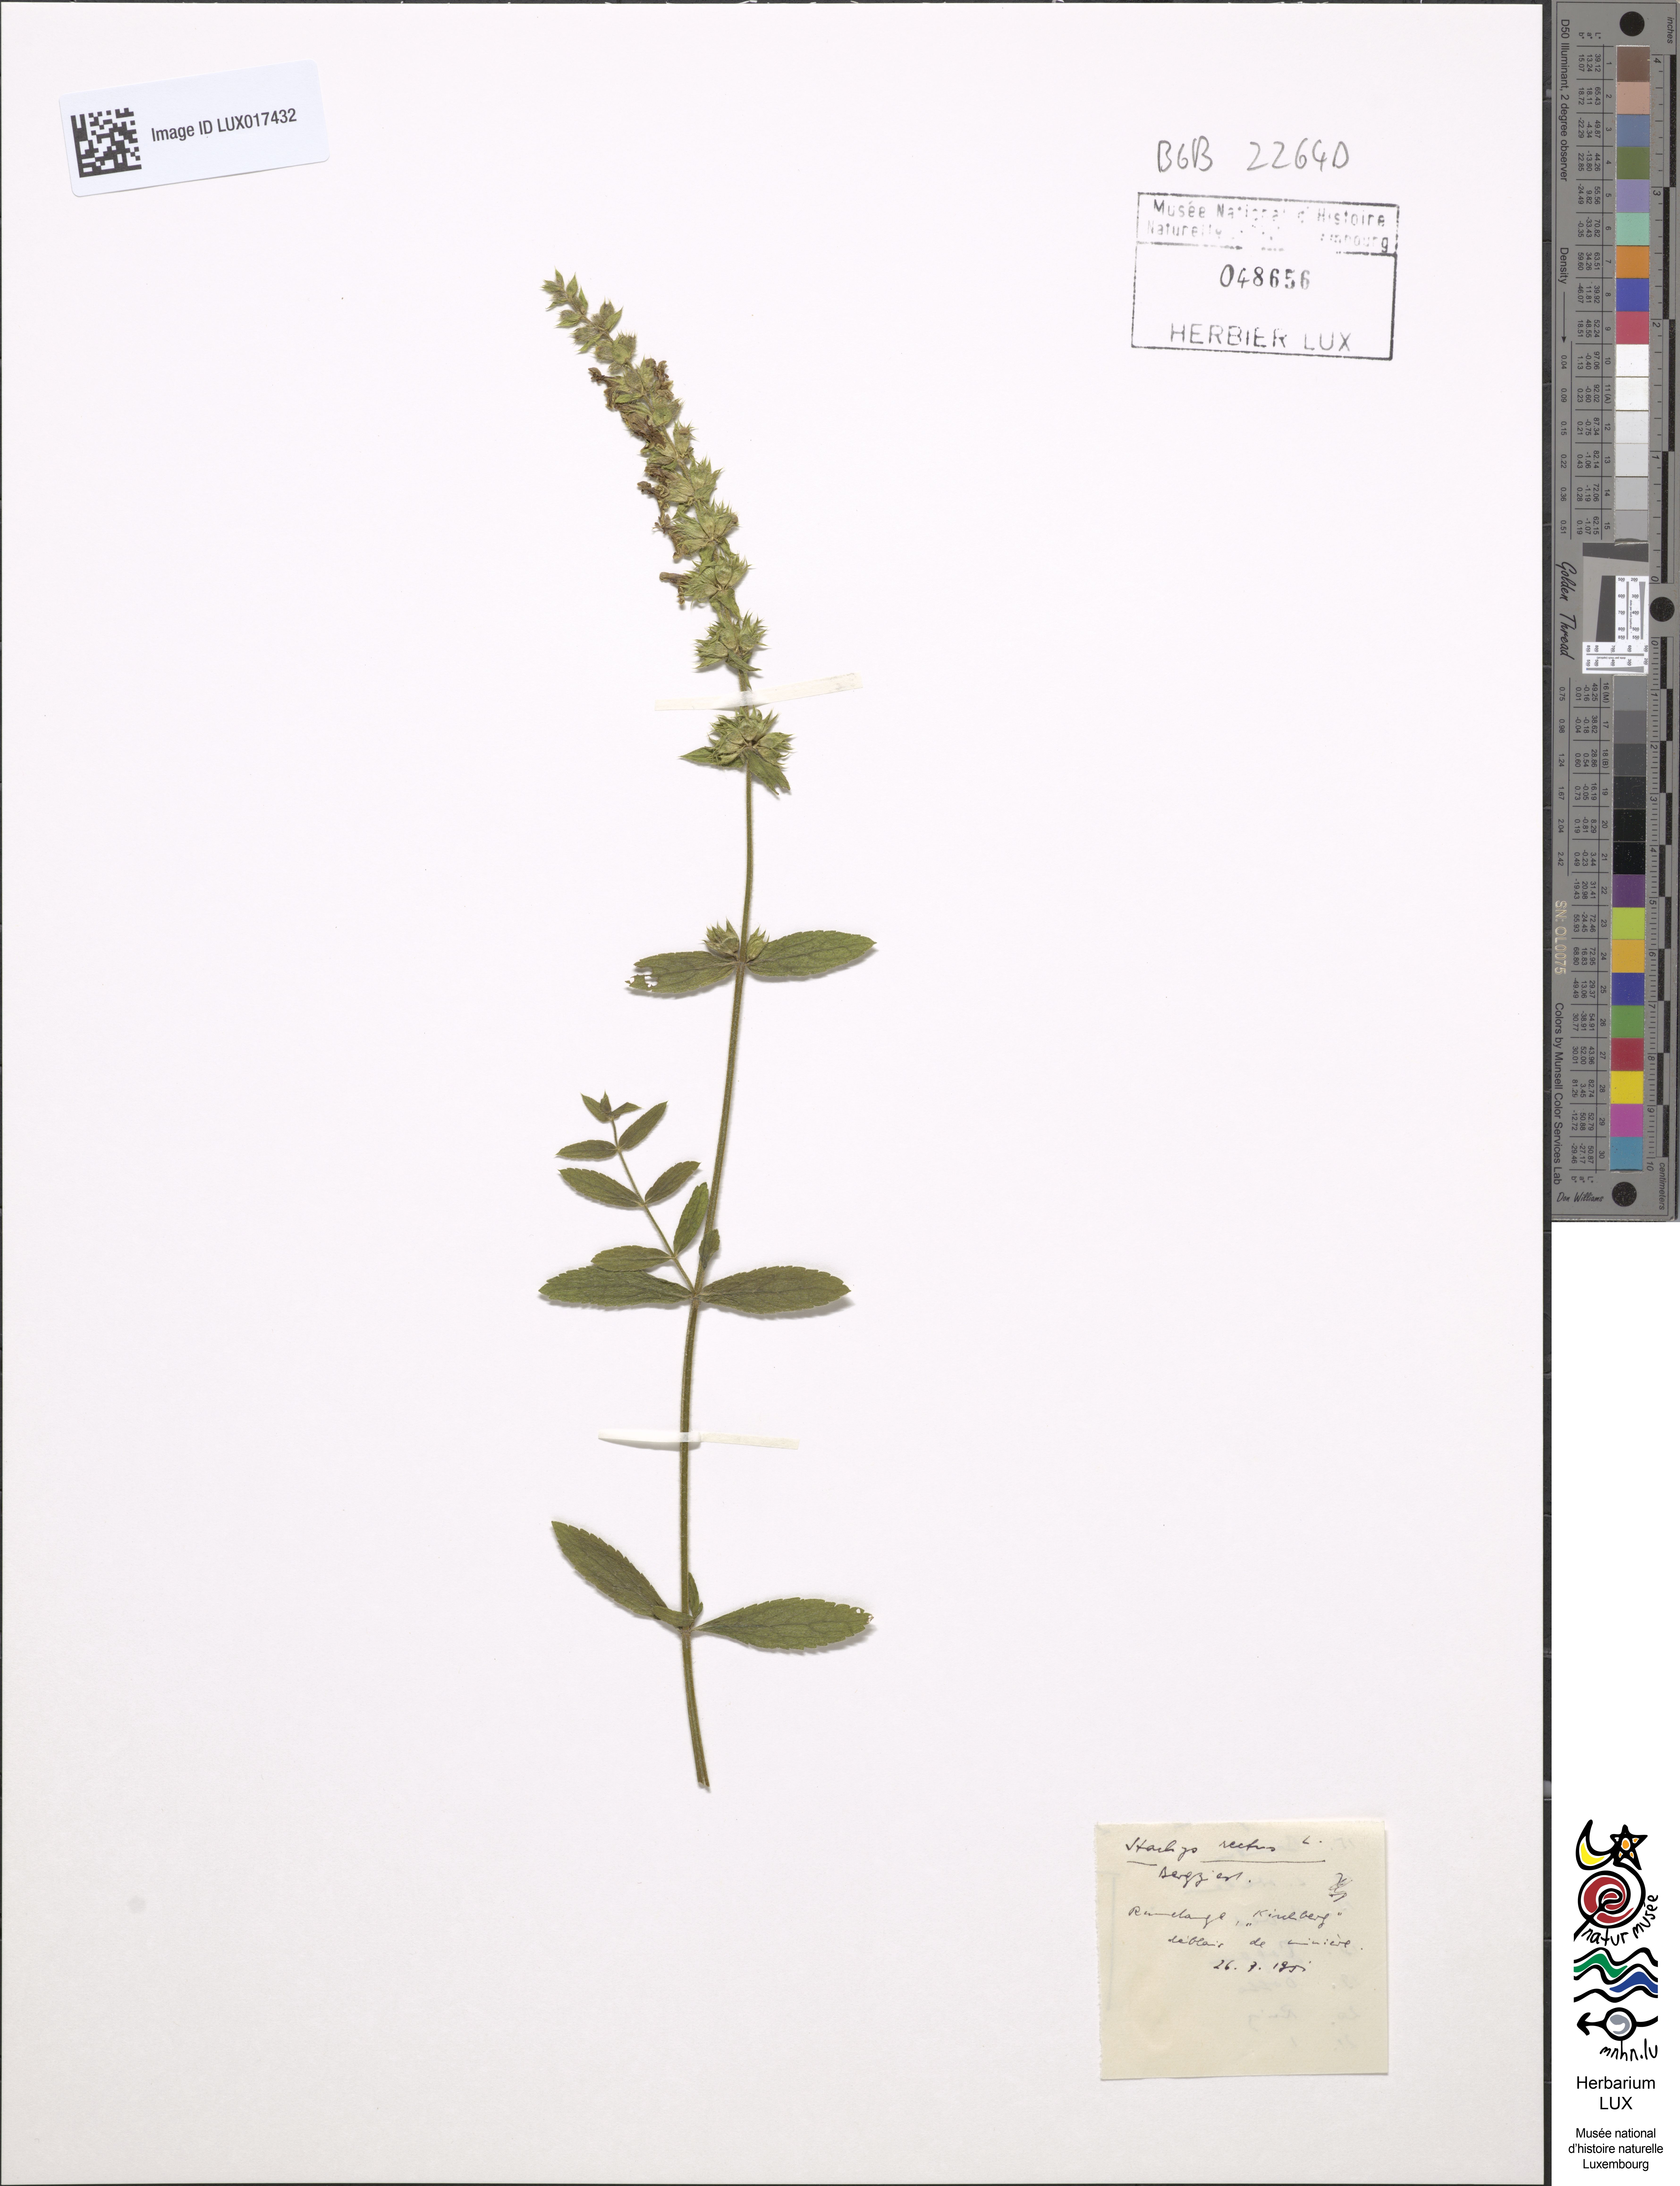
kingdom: Plantae
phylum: Tracheophyta
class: Magnoliopsida
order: Lamiales
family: Lamiaceae
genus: Stachys
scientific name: Stachys recta
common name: Perennial yellow-woundwort
